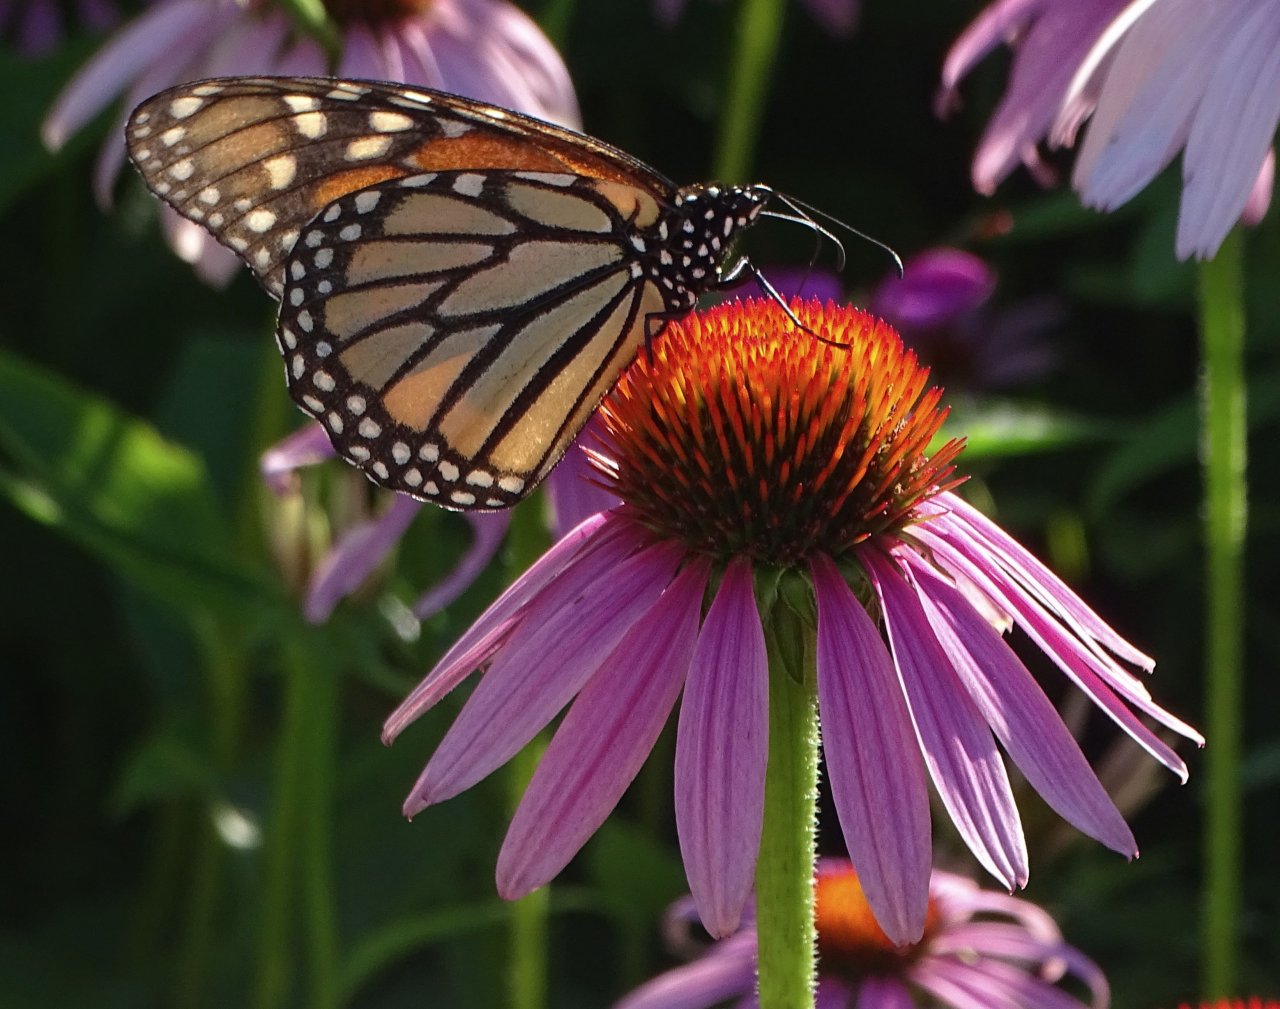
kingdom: Animalia
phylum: Arthropoda
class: Insecta
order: Lepidoptera
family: Nymphalidae
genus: Danaus
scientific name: Danaus plexippus
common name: Monarch
